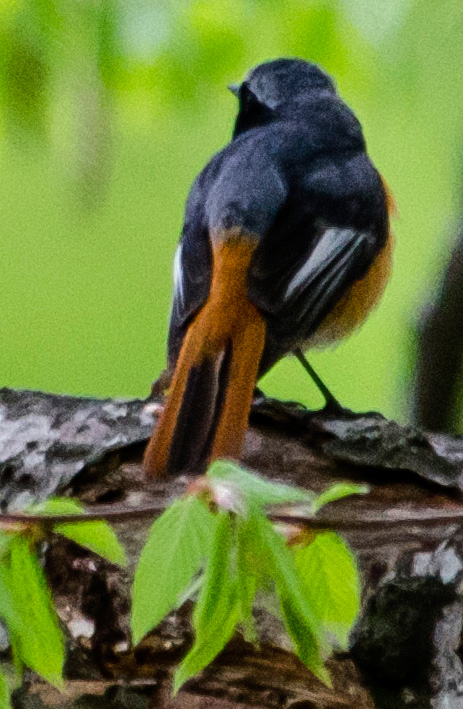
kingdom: Animalia
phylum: Chordata
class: Aves
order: Passeriformes
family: Muscicapidae
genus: Phoenicurus
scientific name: Phoenicurus phoenicurus
